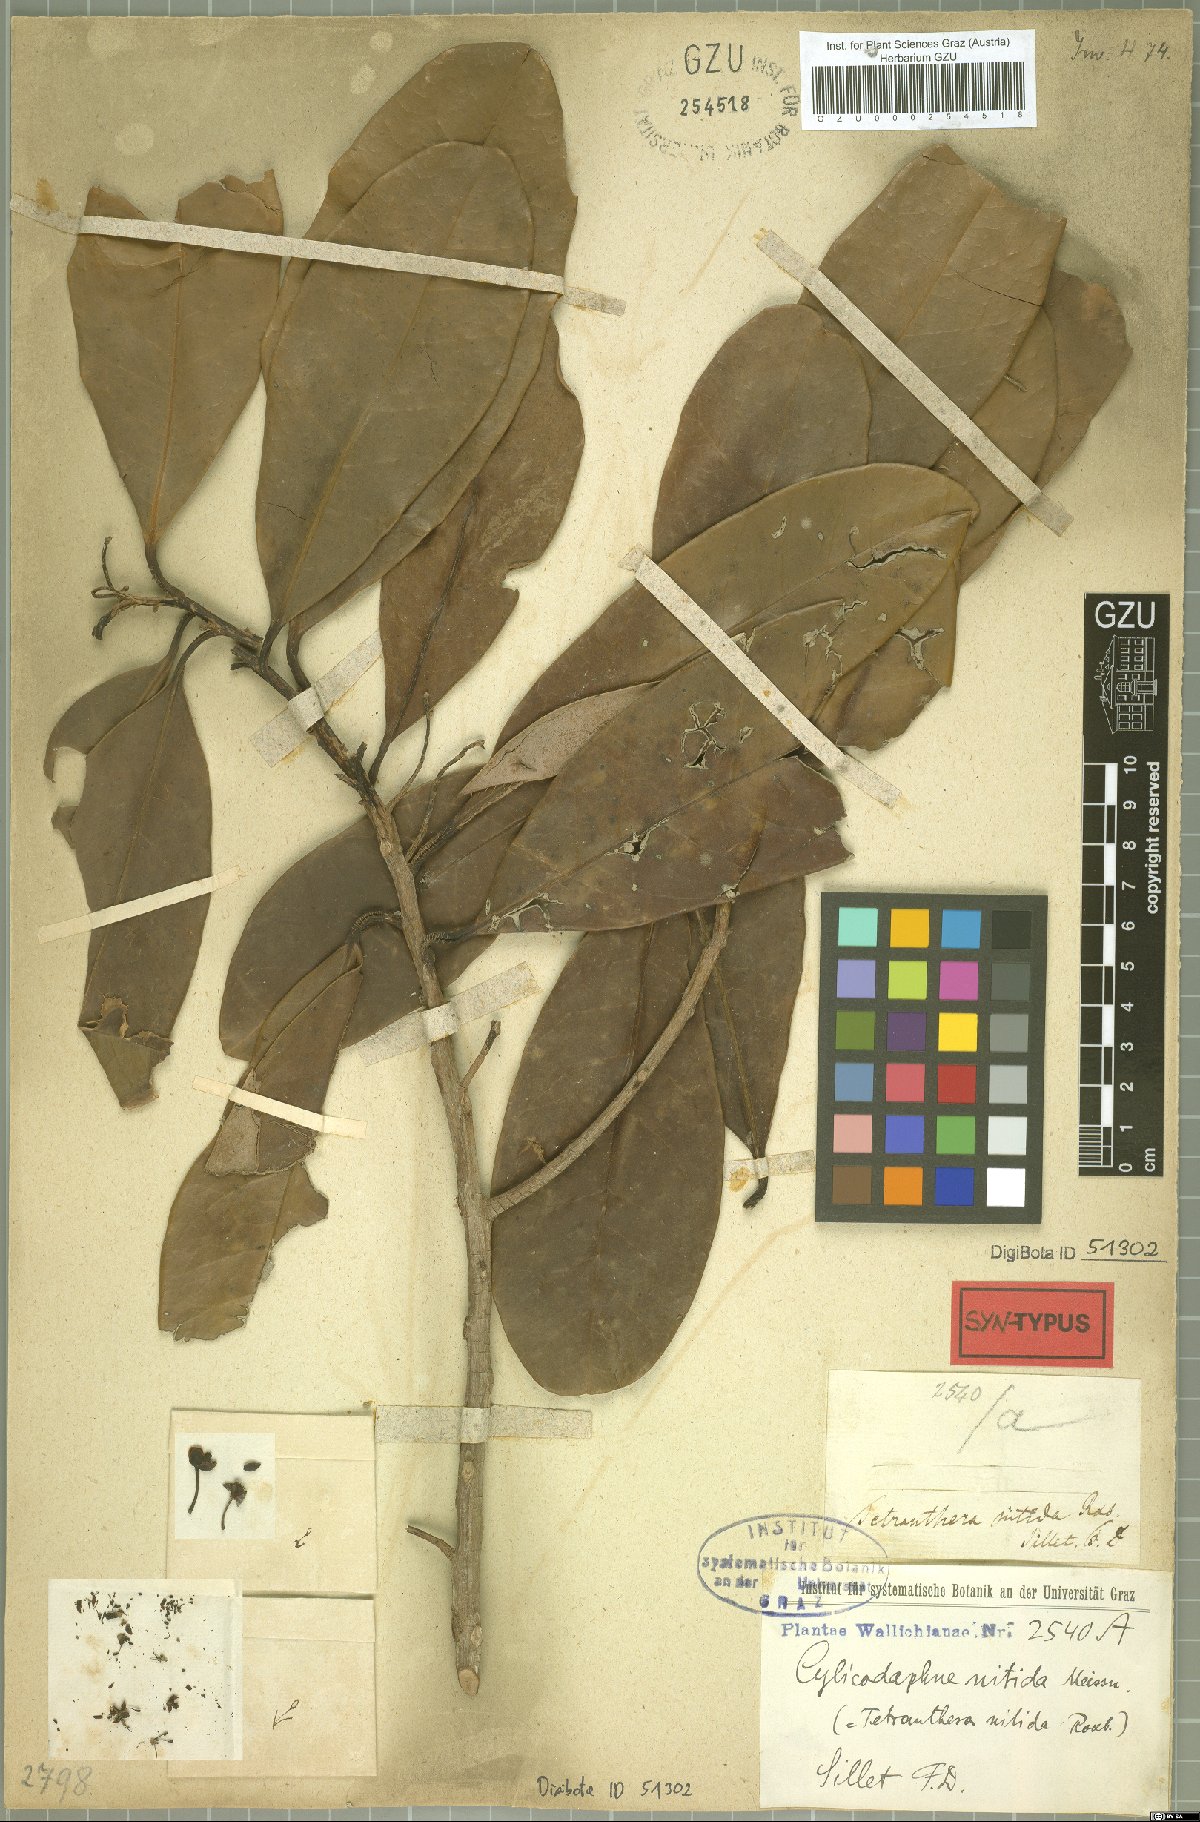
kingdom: Plantae
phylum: Tracheophyta
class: Magnoliopsida
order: Laurales
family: Lauraceae
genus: Litsea
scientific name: Litsea nitida
